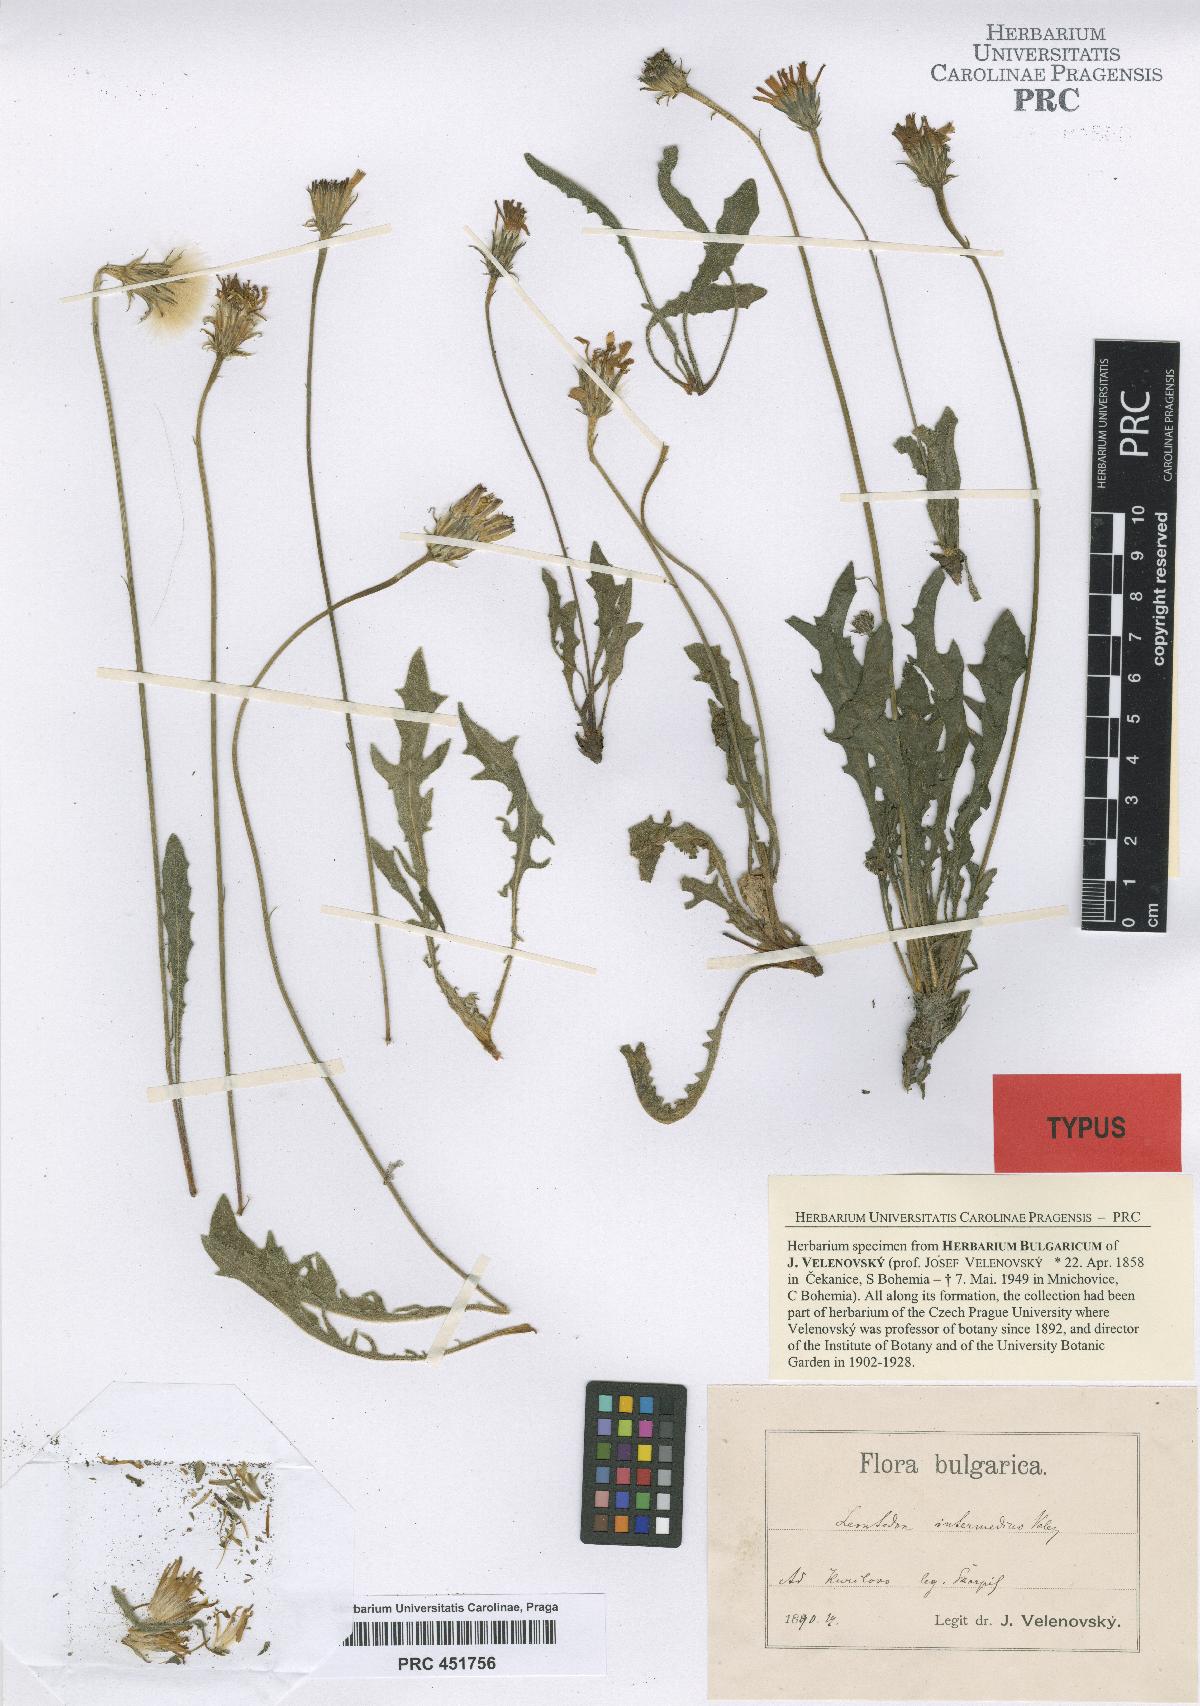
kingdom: Plantae
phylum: Tracheophyta
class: Magnoliopsida
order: Asterales
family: Asteraceae
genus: Leontodon
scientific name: Leontodon biscutellifolius
